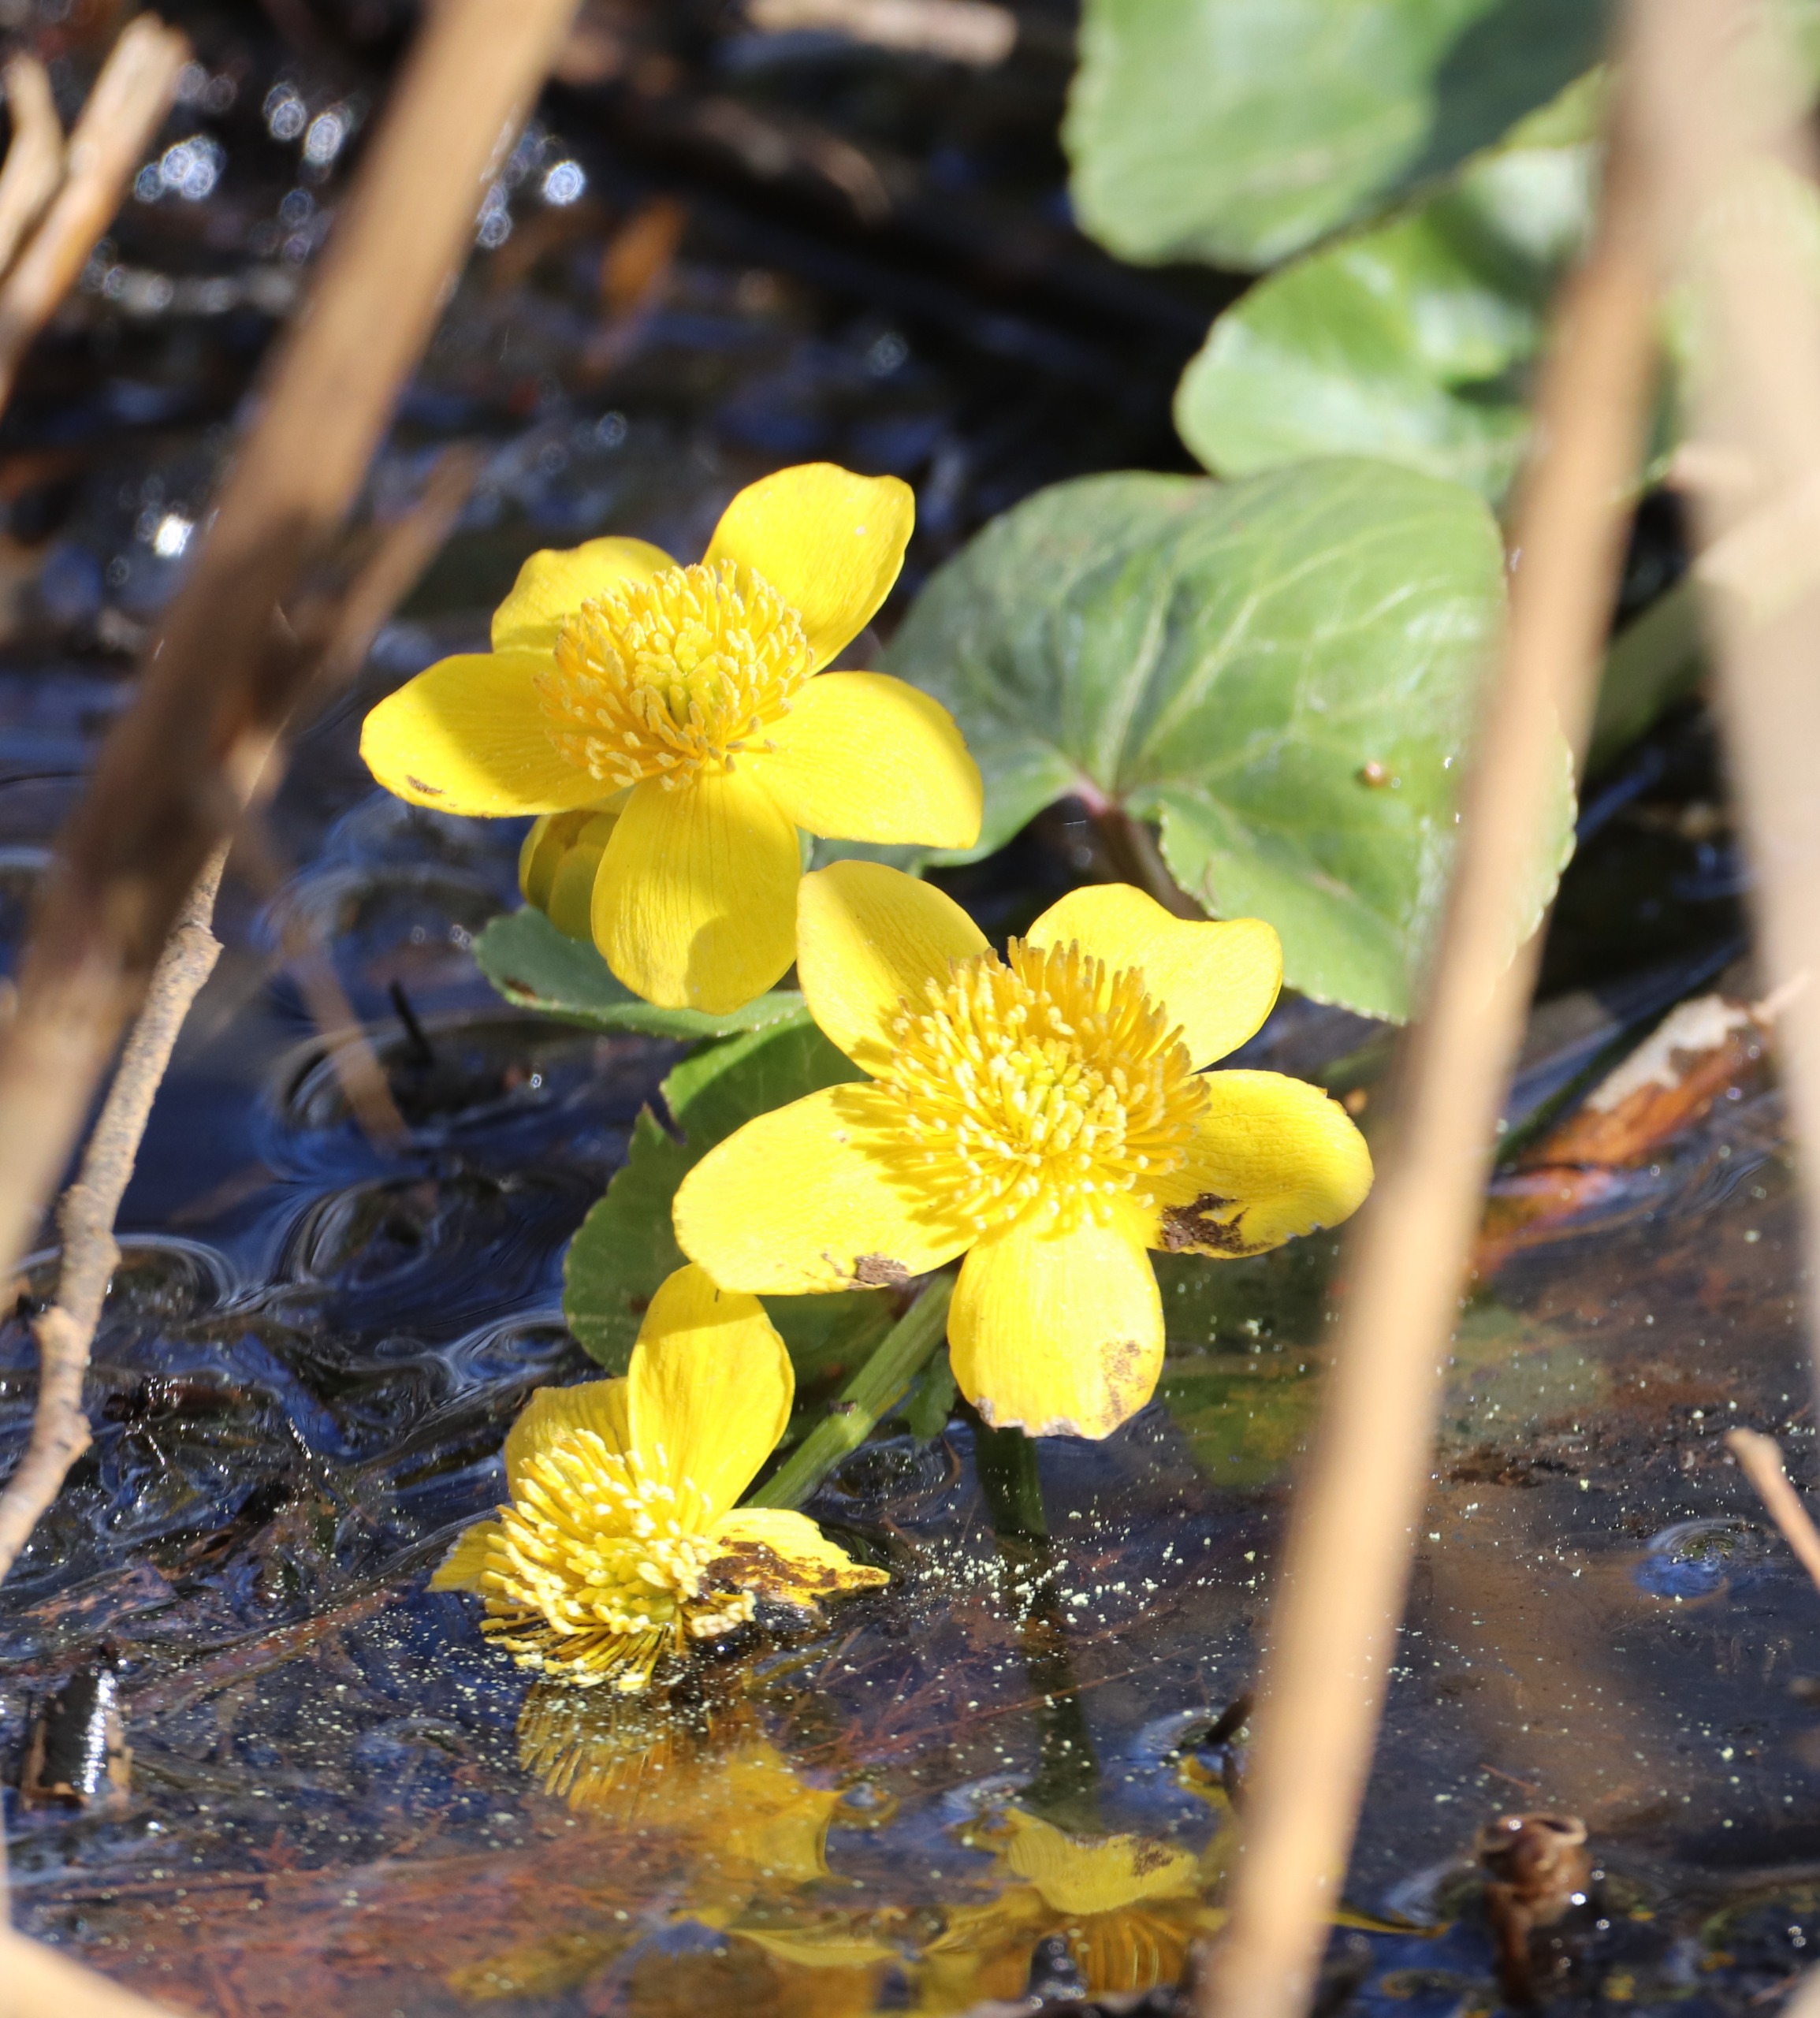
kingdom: Plantae
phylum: Tracheophyta
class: Magnoliopsida
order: Ranunculales
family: Ranunculaceae
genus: Caltha
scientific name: Caltha palustris
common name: Eng-kabbeleje
